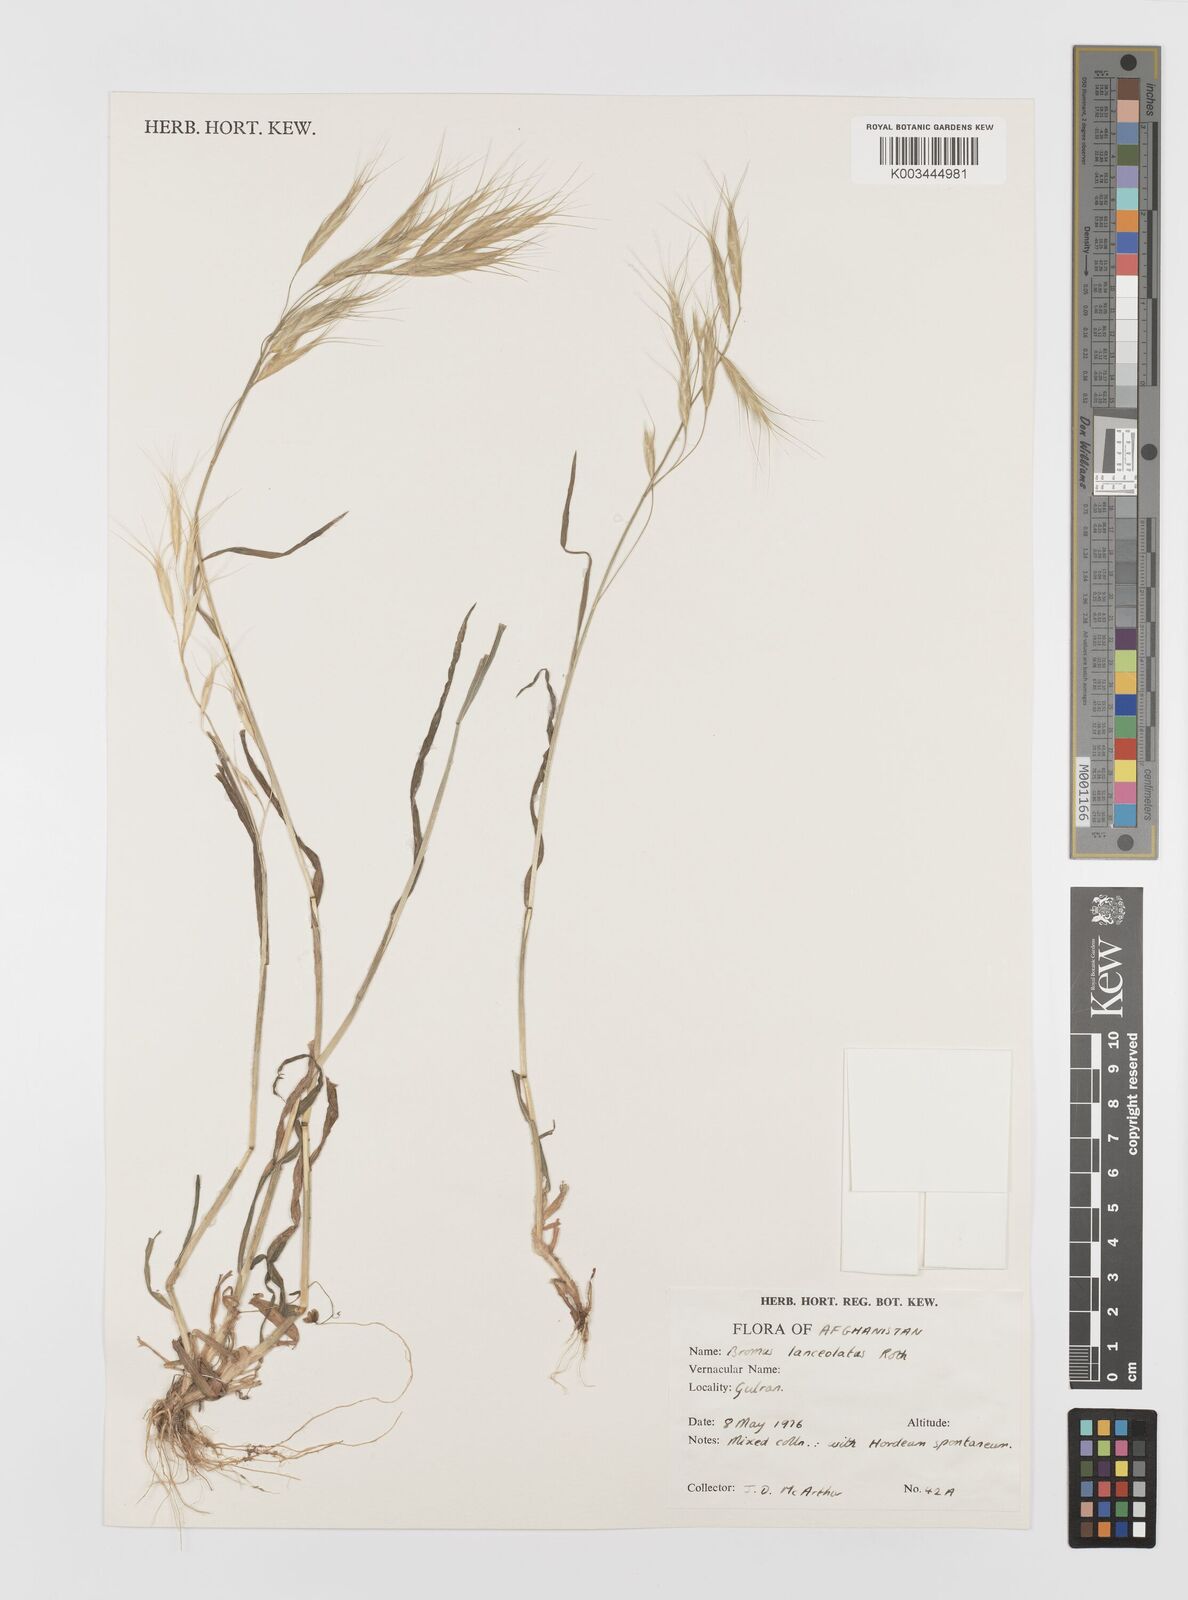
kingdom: Plantae
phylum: Tracheophyta
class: Liliopsida
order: Poales
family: Poaceae
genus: Bromus
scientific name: Bromus lanceolatus
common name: Mediterranean brome
